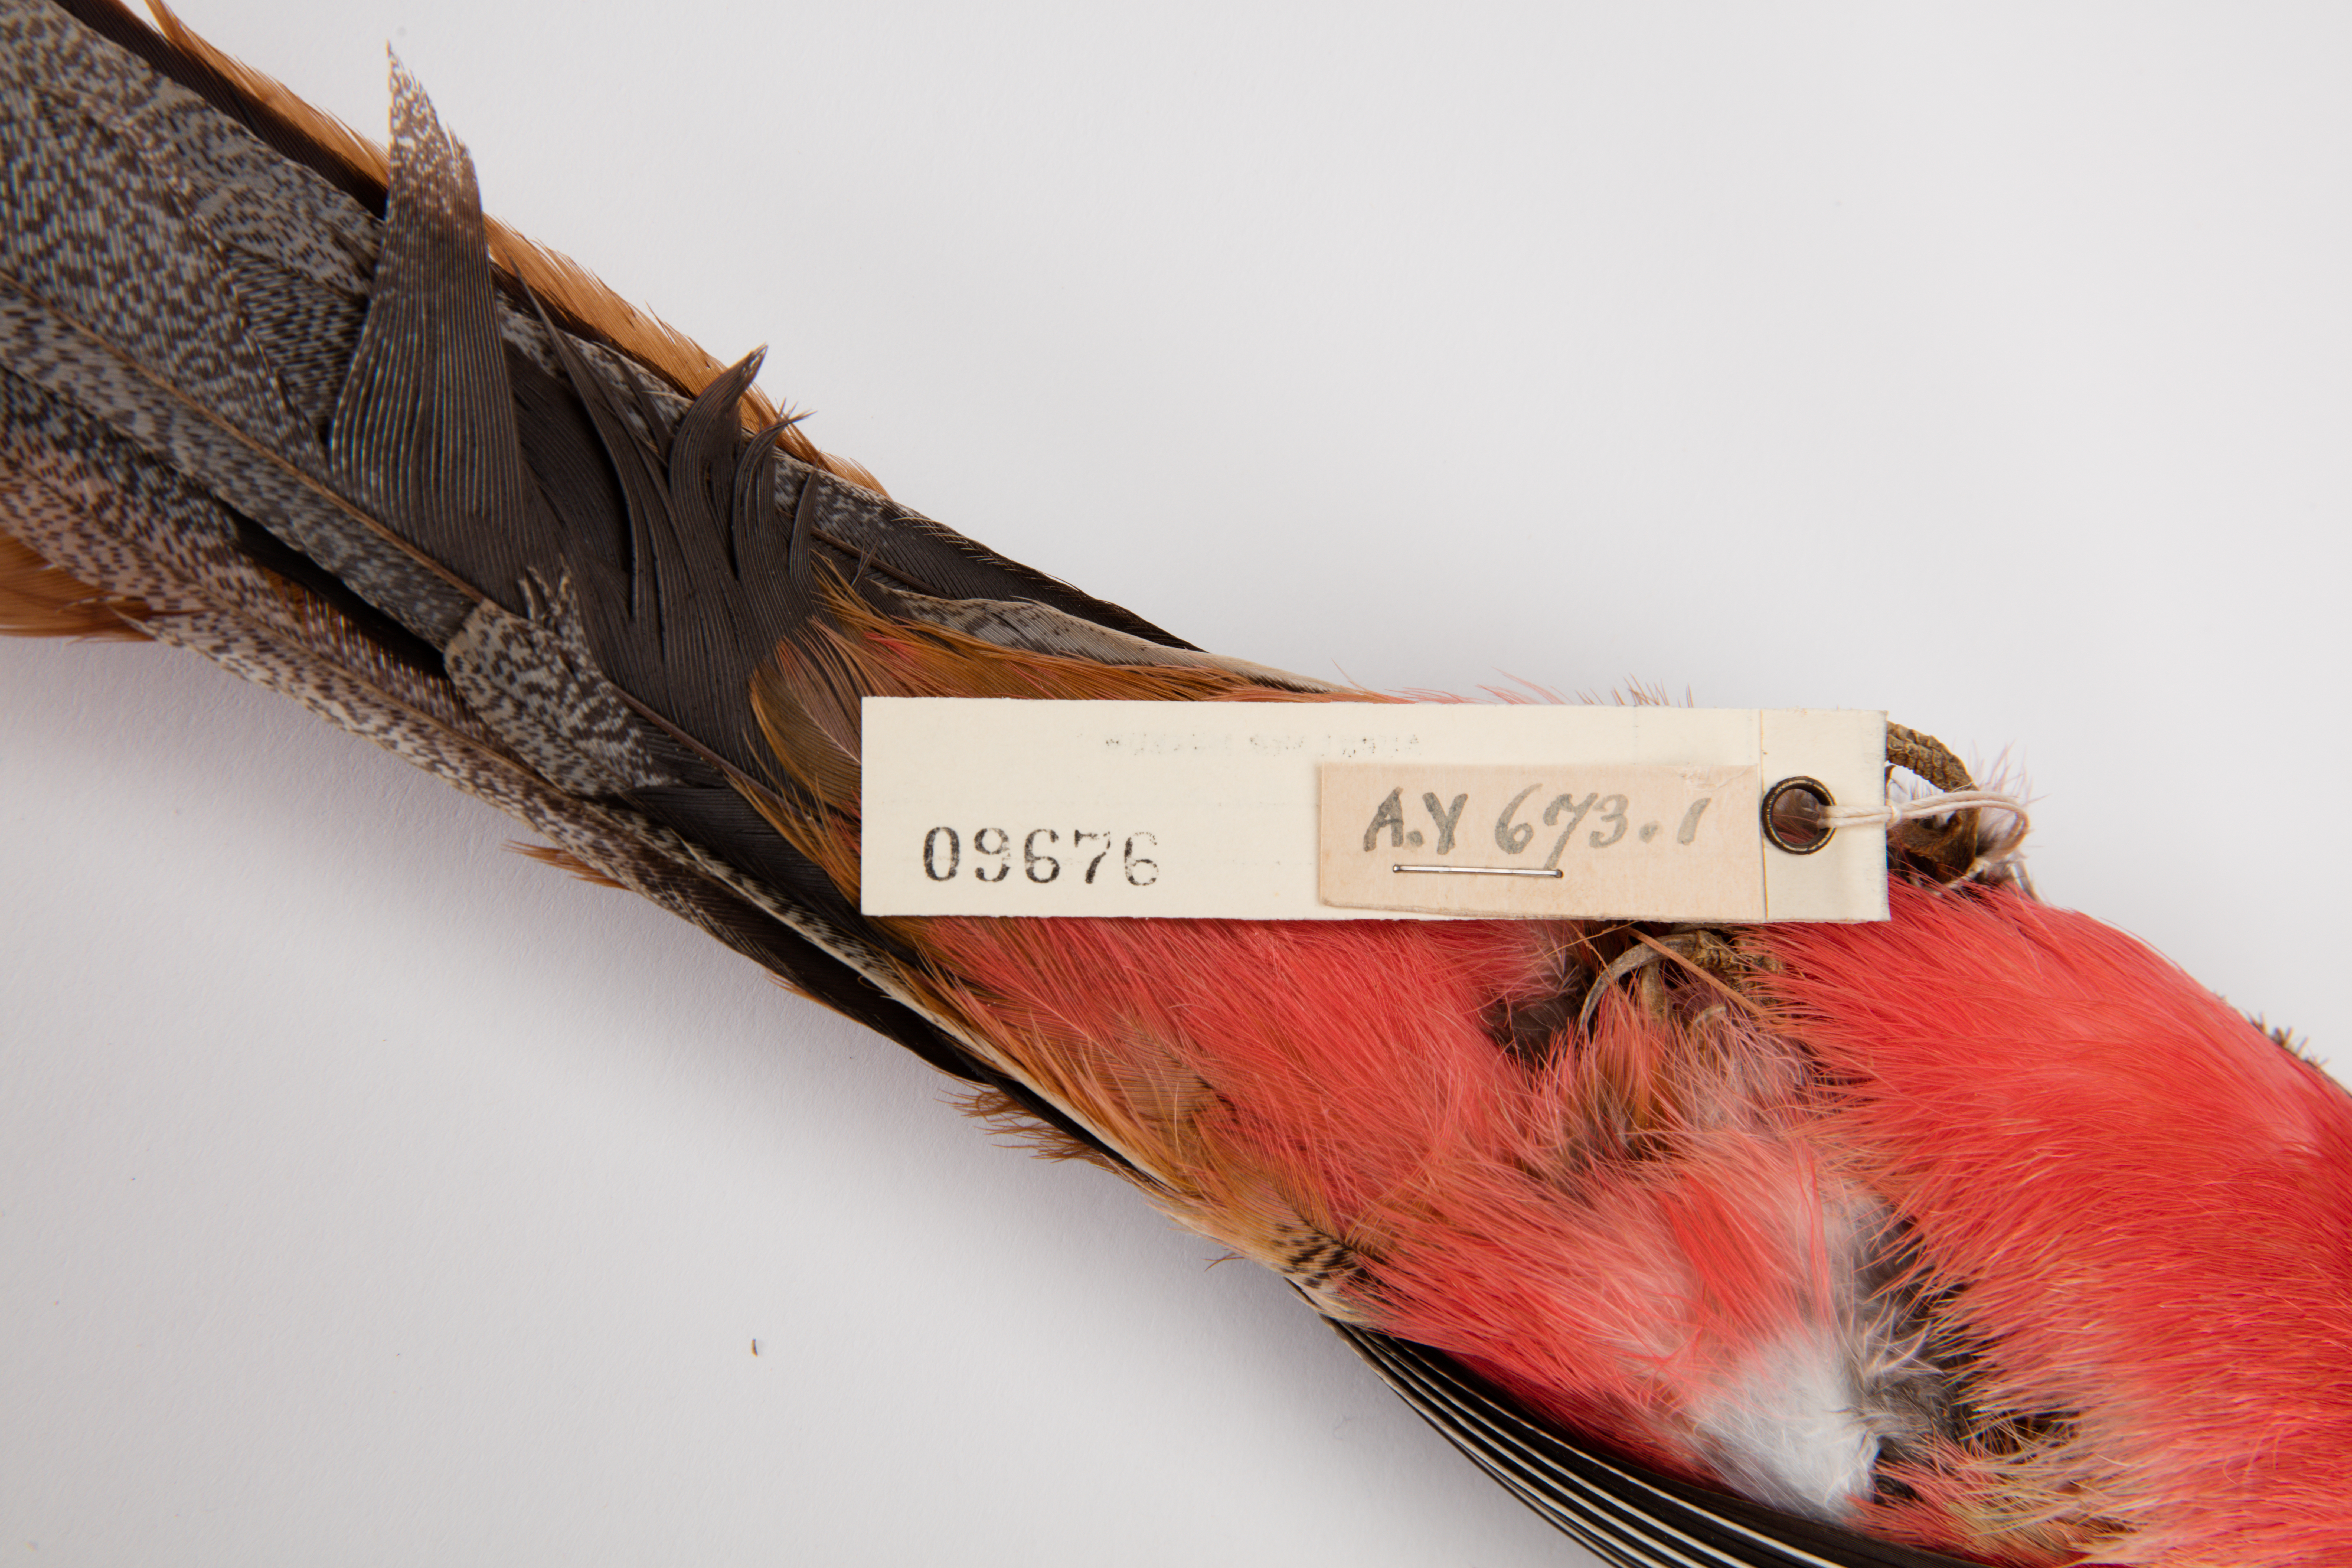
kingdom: Animalia
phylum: Chordata
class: Aves
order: Trogoniformes
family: Trogonidae
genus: Harpactes
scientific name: Harpactes orrhophaeus
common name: Cinnamon-rumped trogon
